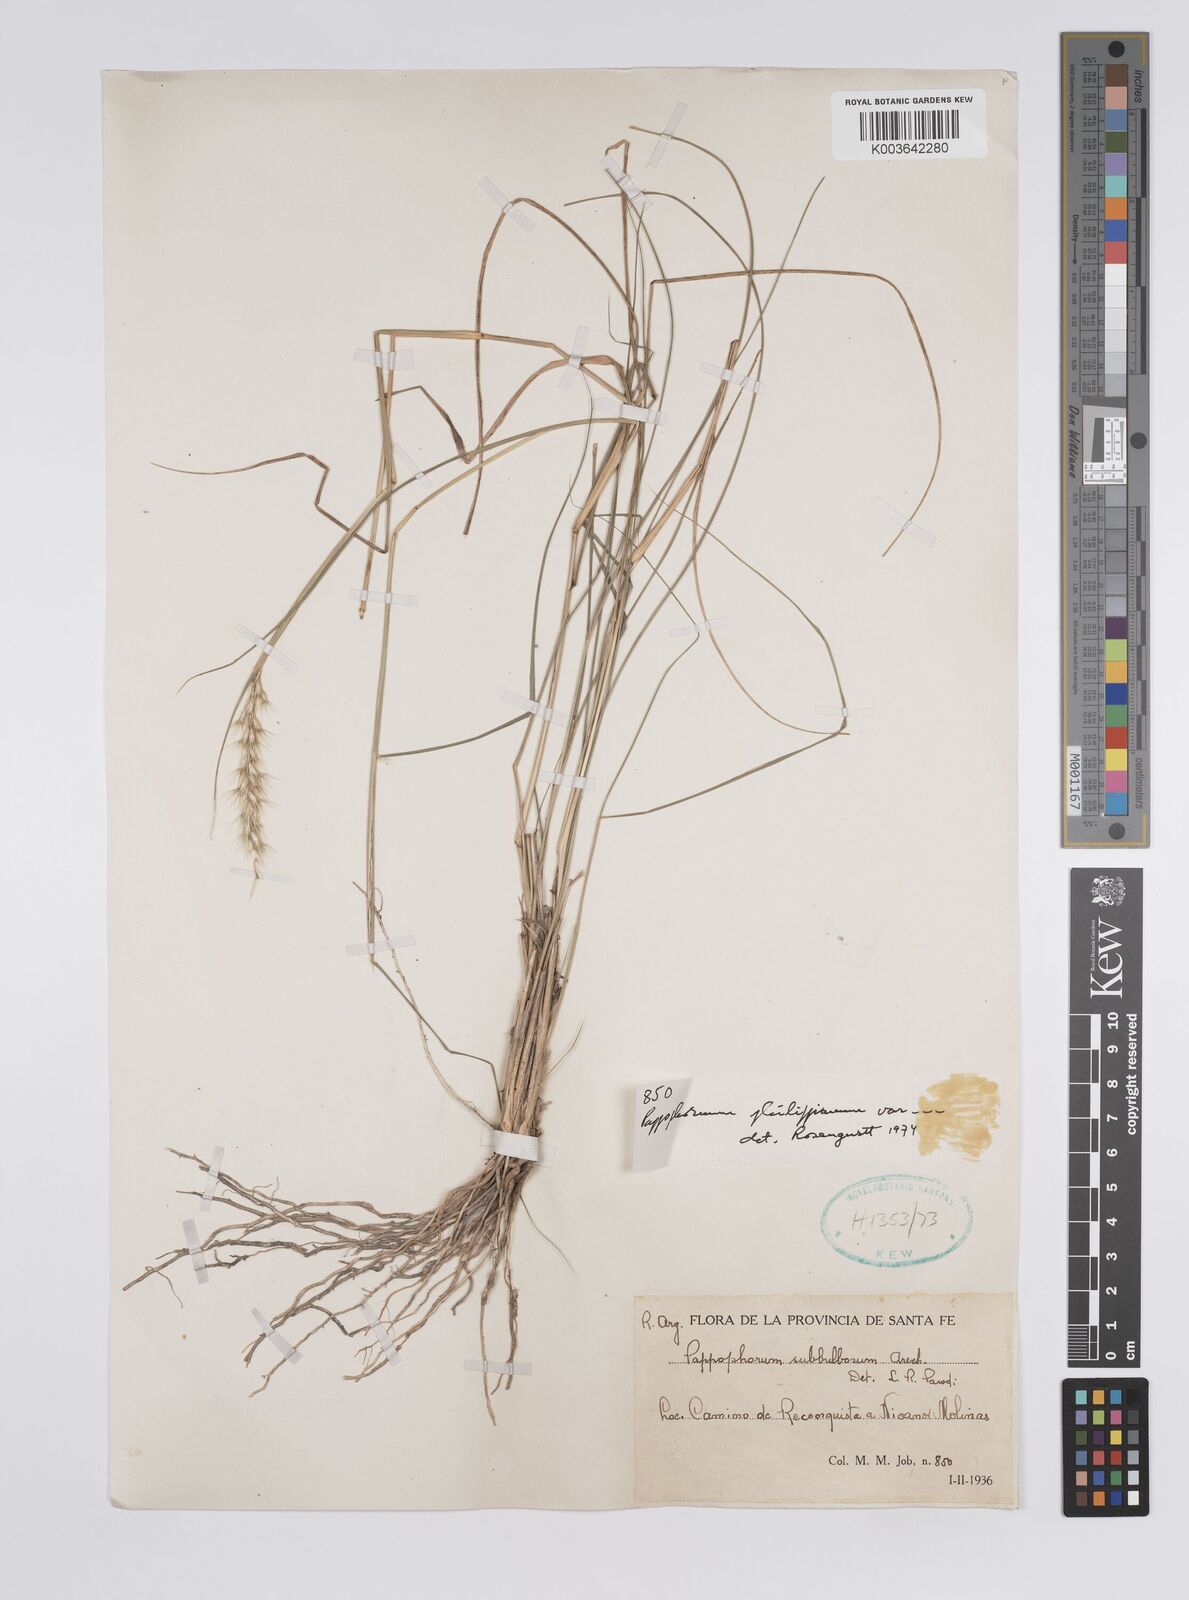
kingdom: Plantae
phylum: Tracheophyta
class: Liliopsida
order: Poales
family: Poaceae
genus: Pappophorum
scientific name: Pappophorum philippianum
